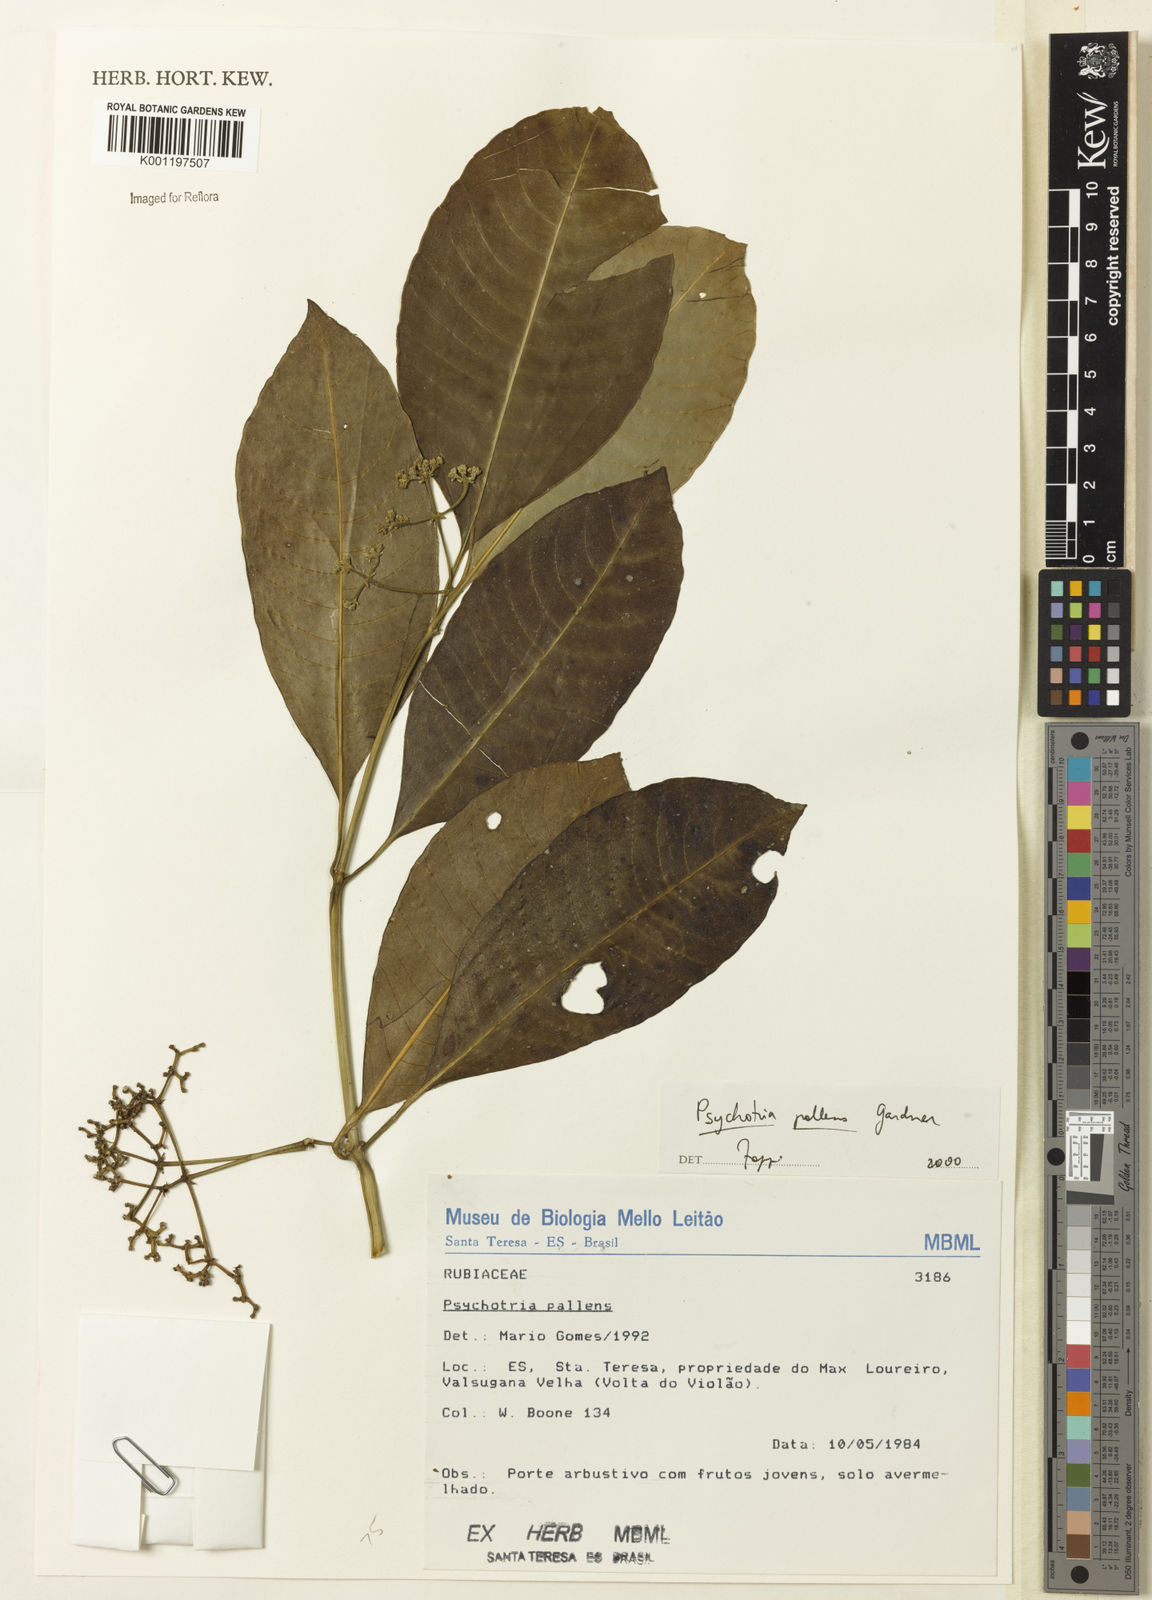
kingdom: Plantae
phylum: Tracheophyta
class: Magnoliopsida
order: Gentianales
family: Rubiaceae
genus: Psychotria
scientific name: Psychotria pallens
